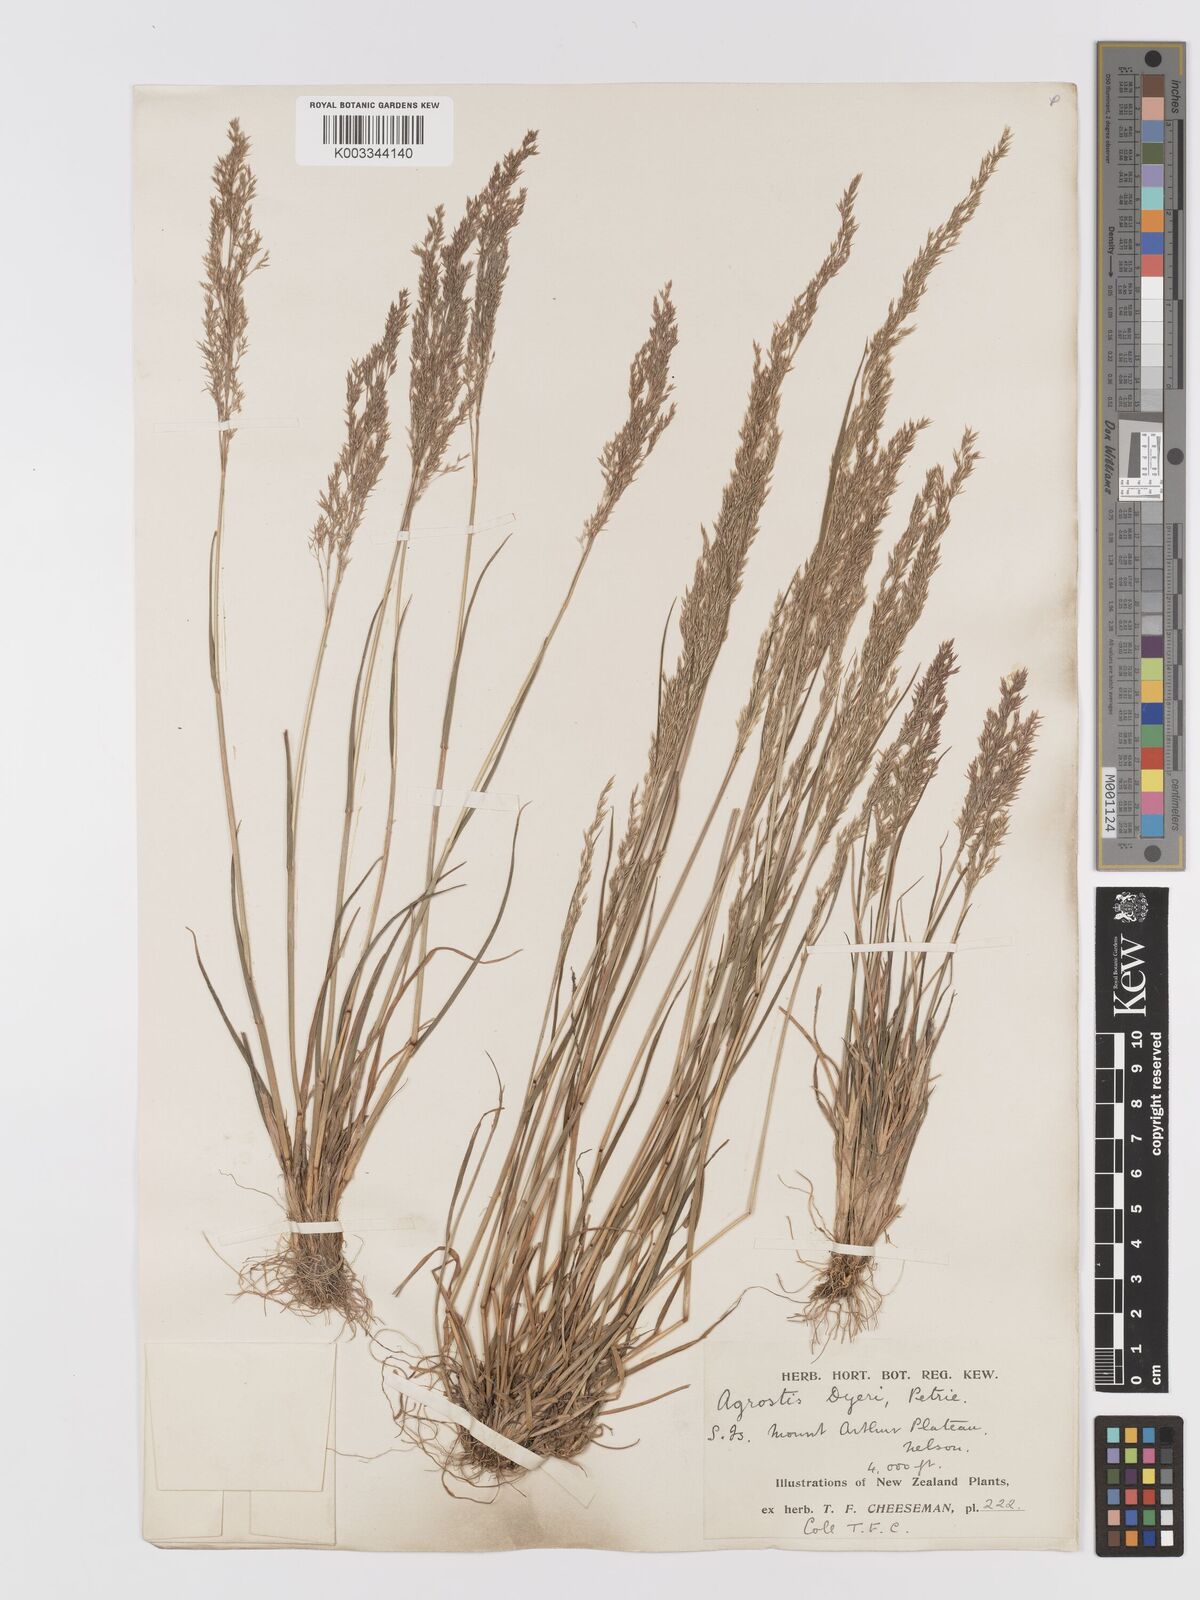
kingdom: Plantae
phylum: Tracheophyta
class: Liliopsida
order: Poales
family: Poaceae
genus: Agrostis
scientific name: Agrostis dyeri
